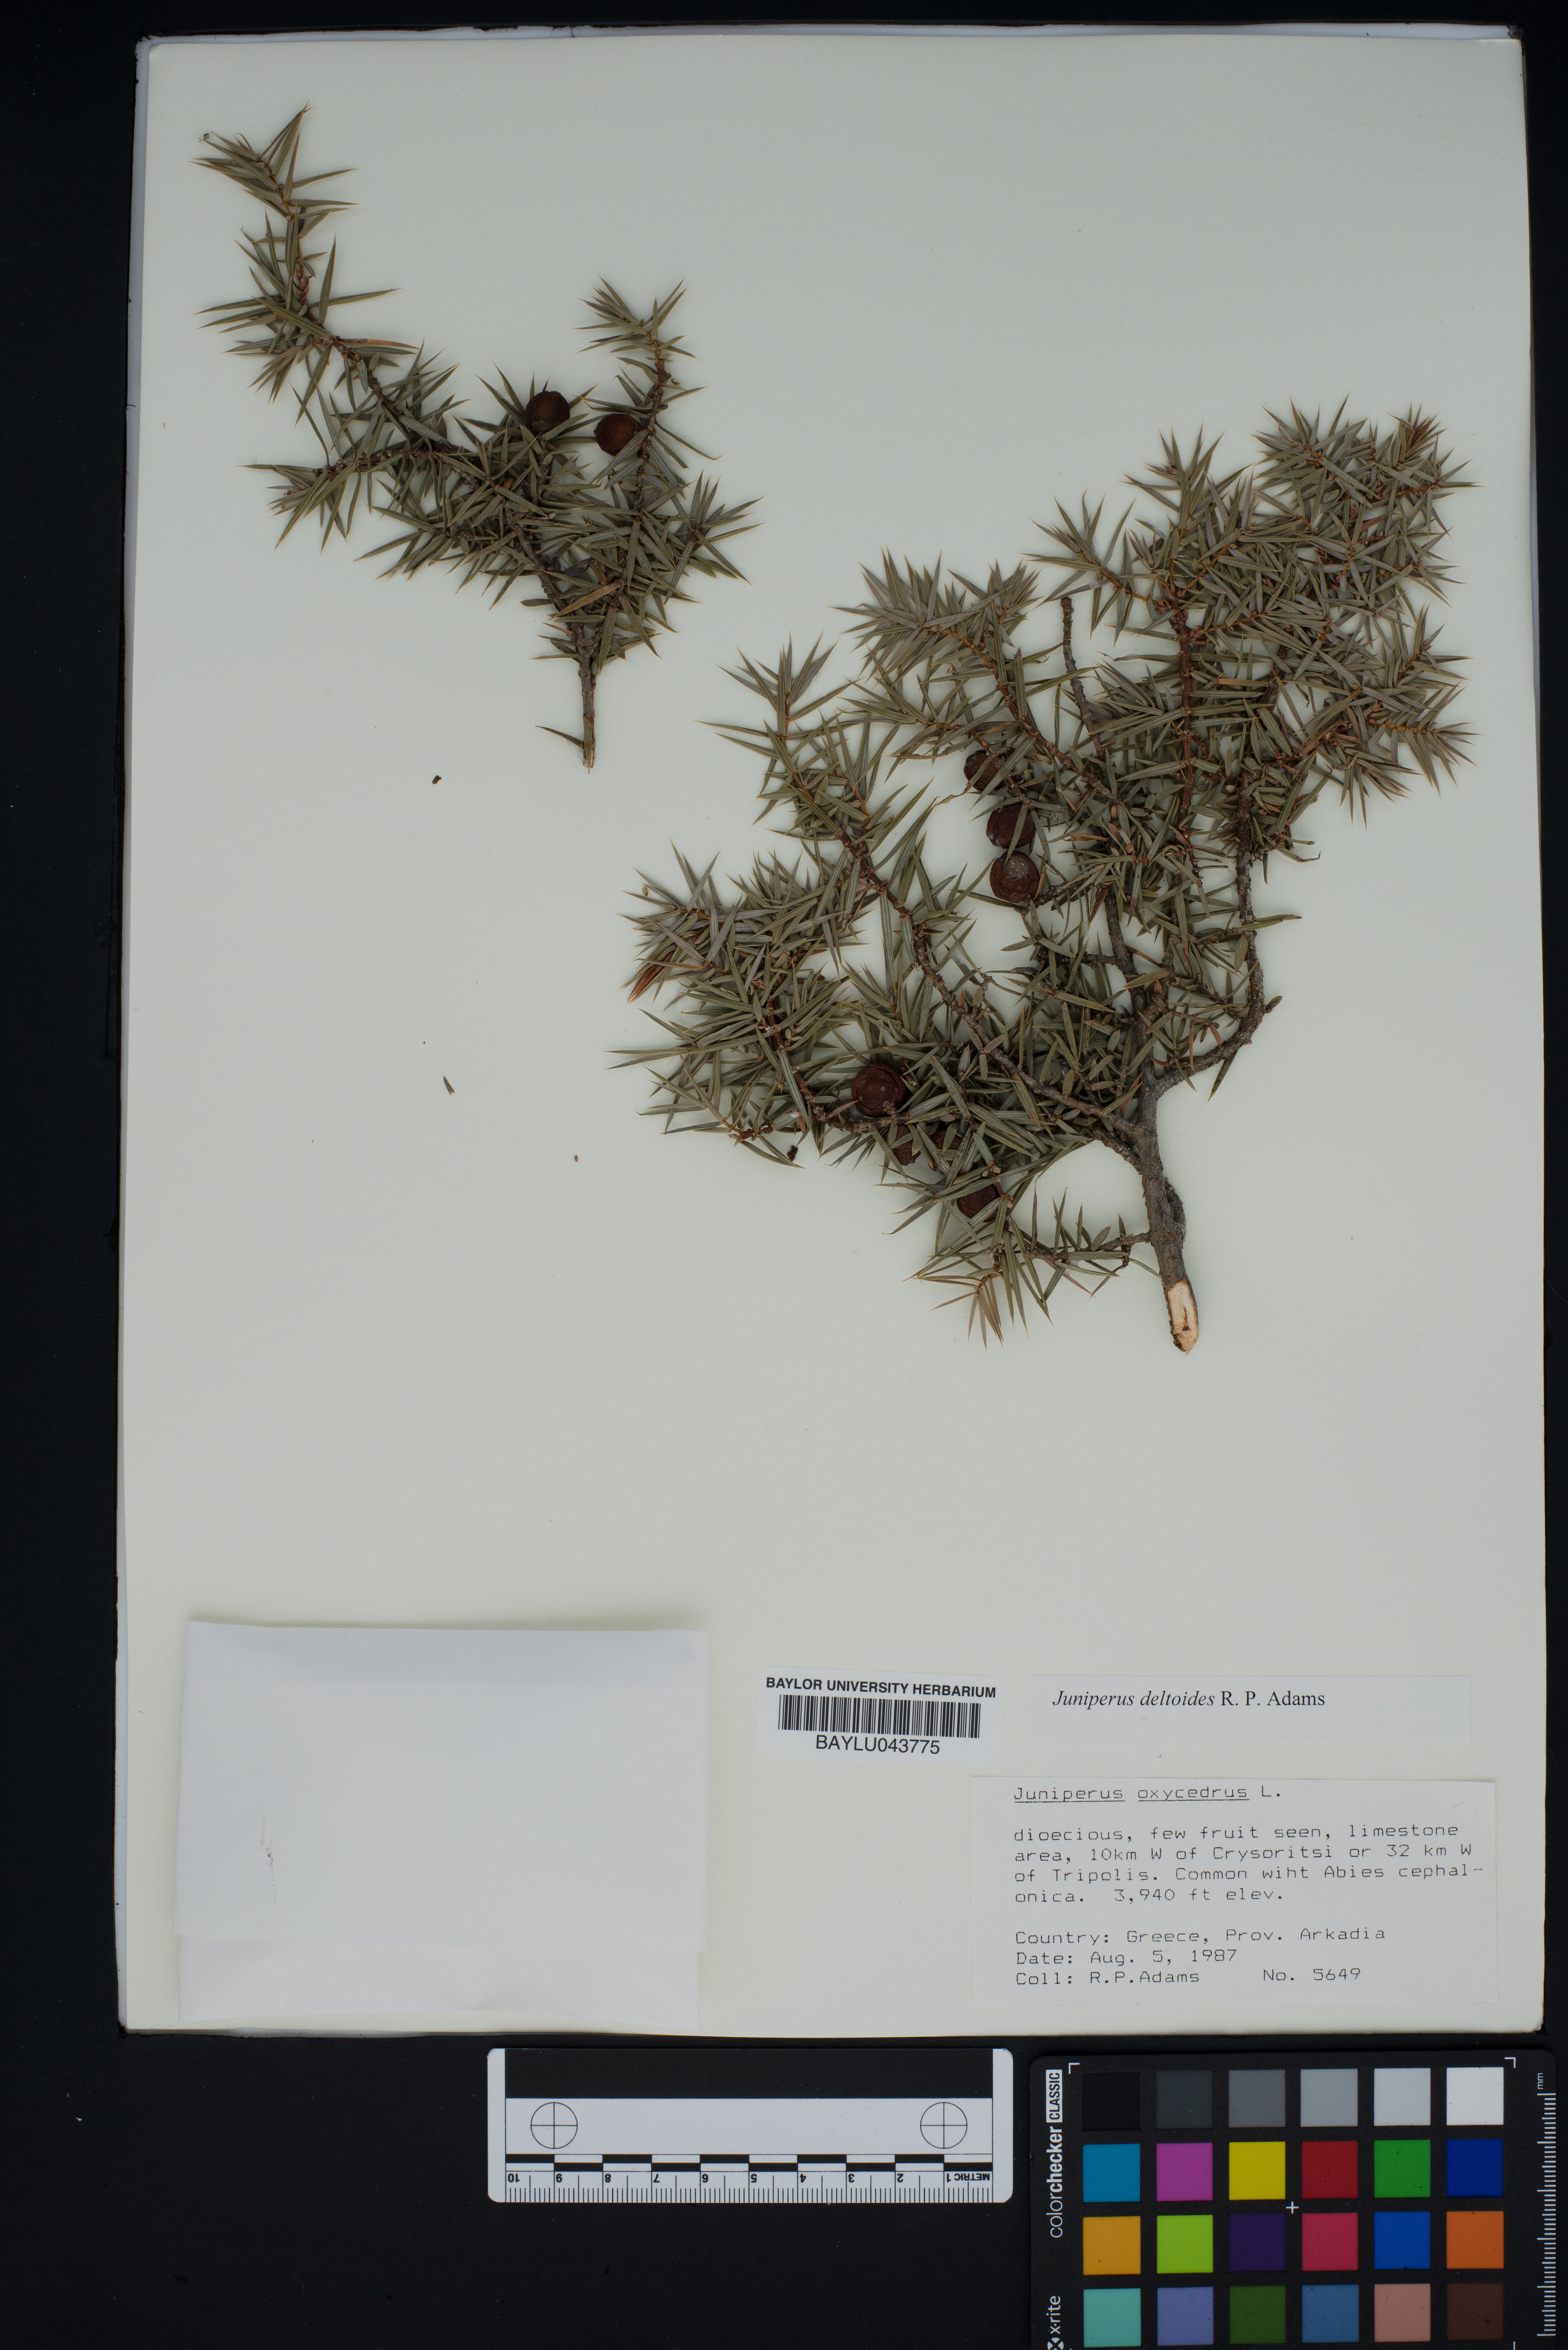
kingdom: Plantae
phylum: Tracheophyta
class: Pinopsida
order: Pinales
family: Cupressaceae
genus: Juniperus
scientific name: Juniperus oxycedrus
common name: Prickly juniper
